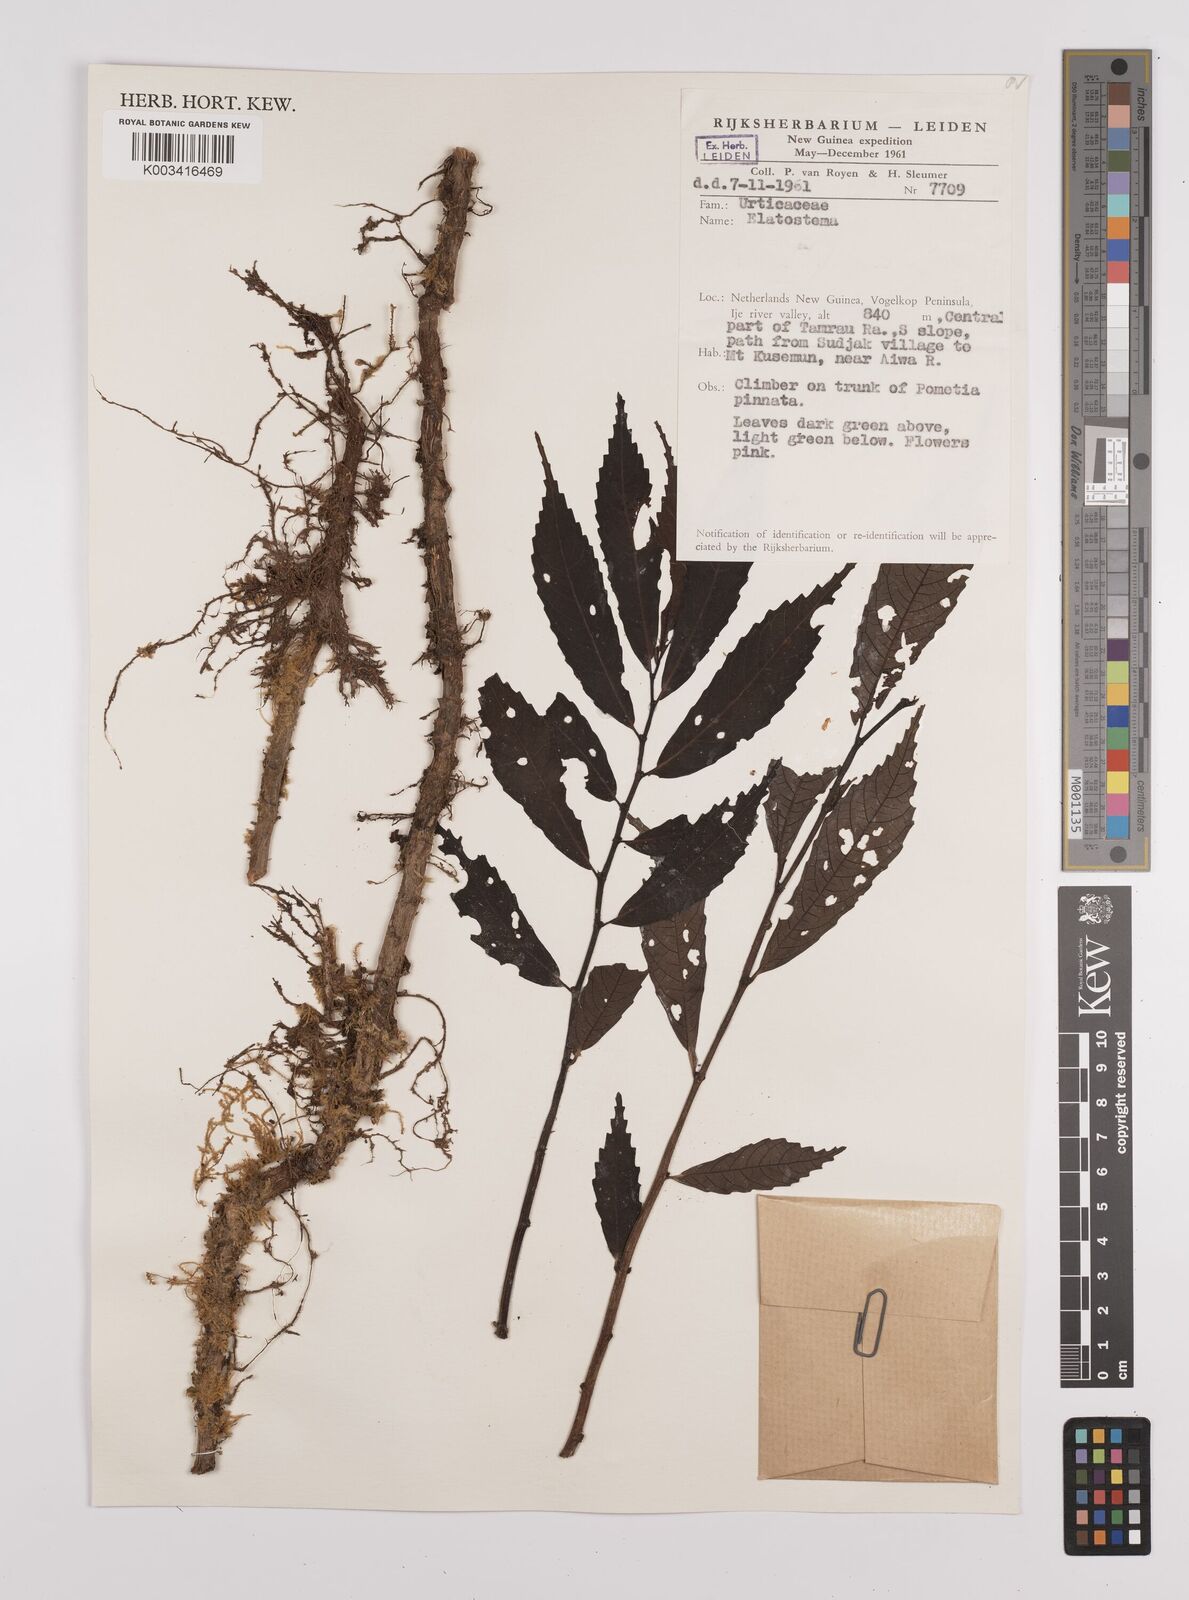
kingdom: Plantae
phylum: Tracheophyta
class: Magnoliopsida
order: Rosales
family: Urticaceae
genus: Elatostema
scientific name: Elatostema
